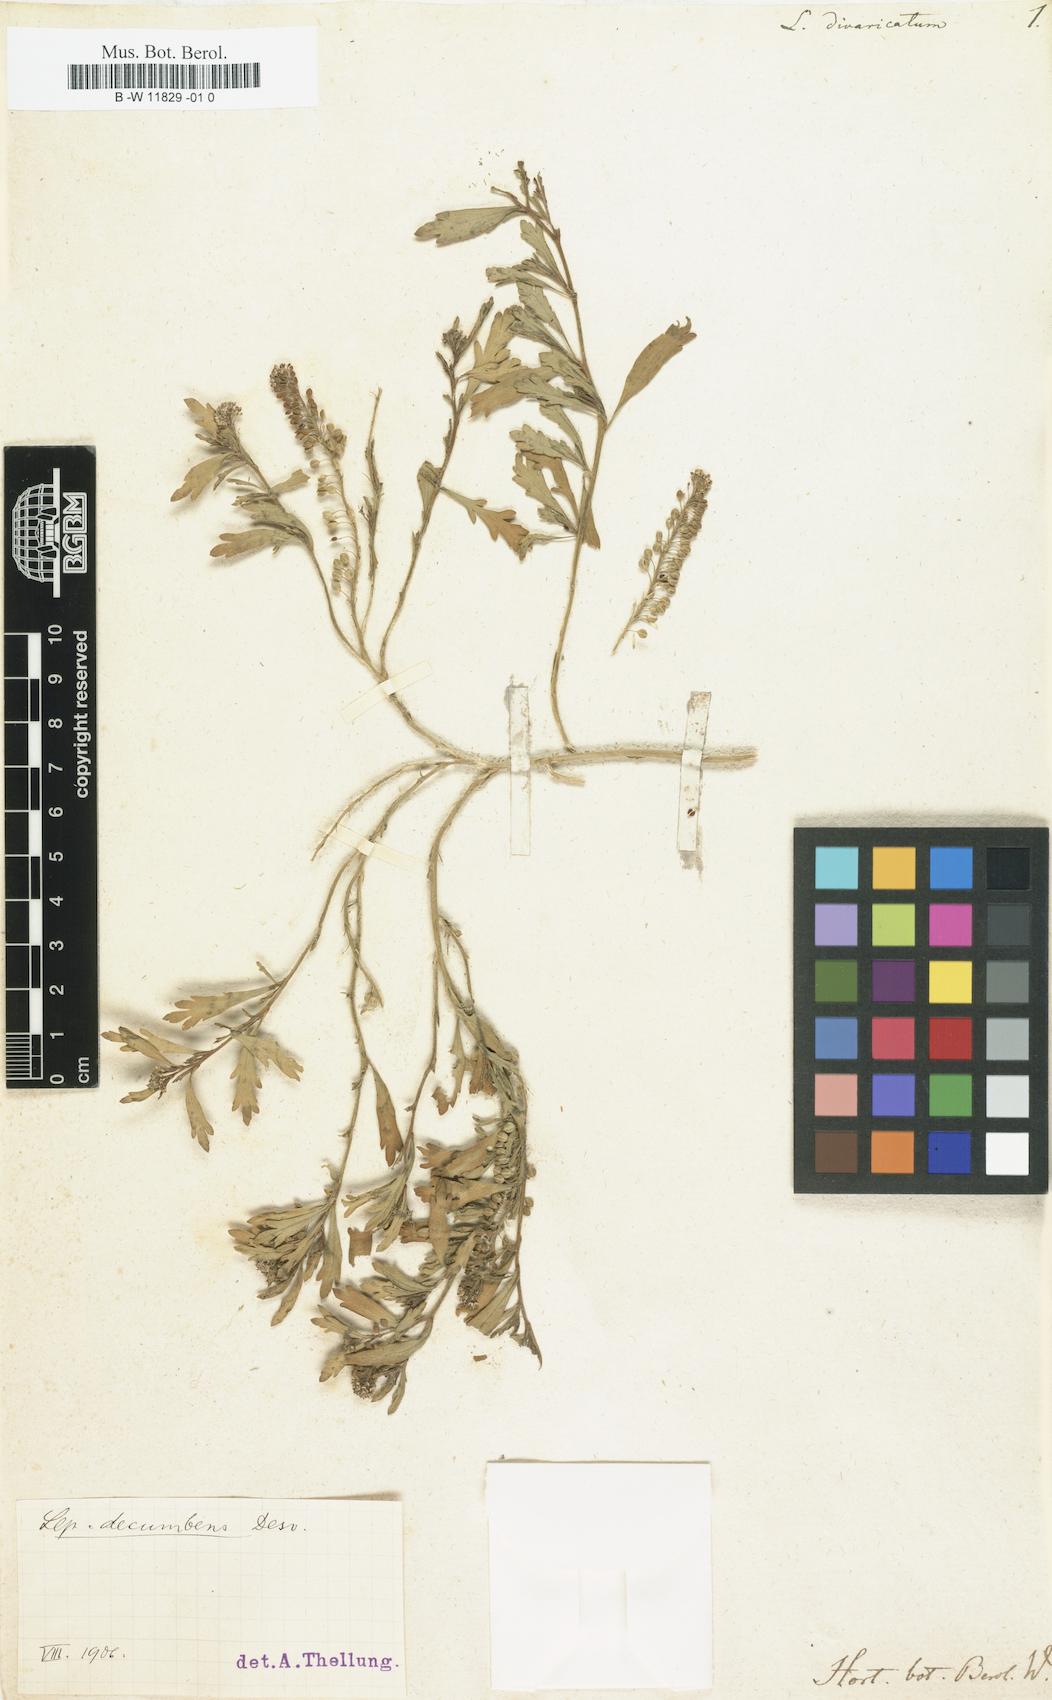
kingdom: Plantae
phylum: Tracheophyta
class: Magnoliopsida
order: Brassicales
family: Brassicaceae
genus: Lepidium
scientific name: Lepidium divaricatum
